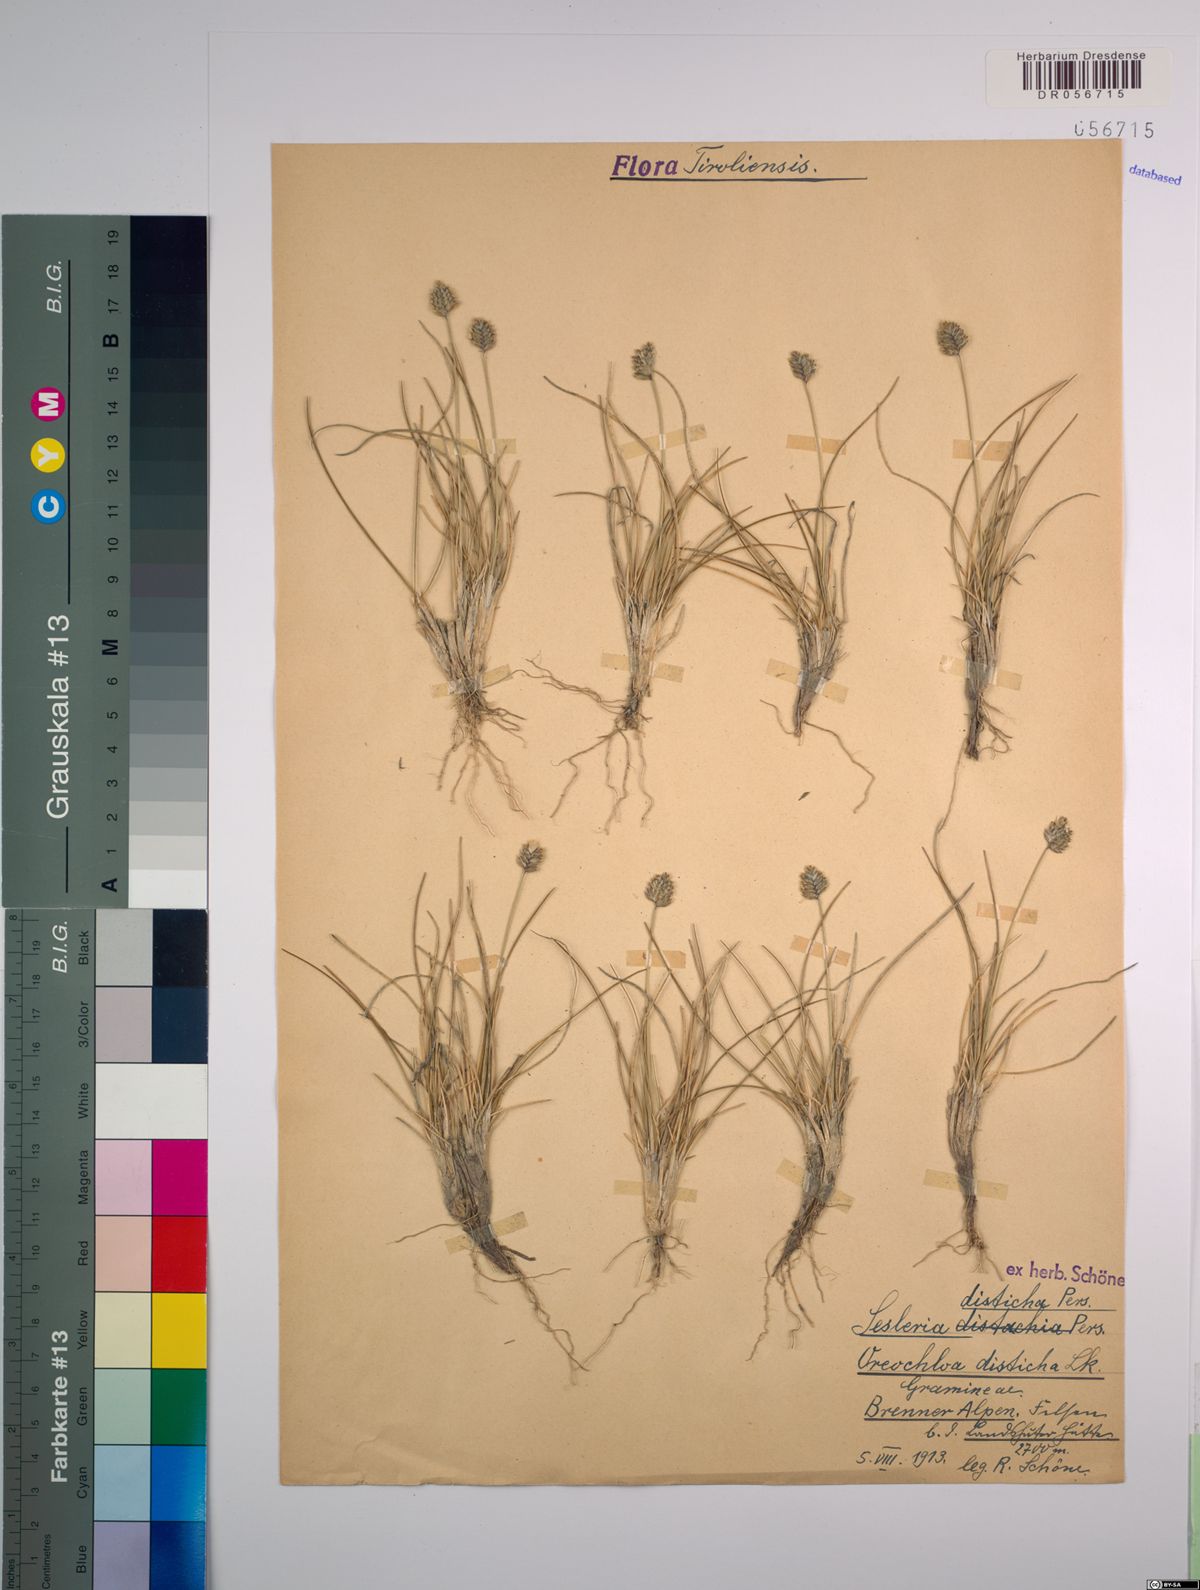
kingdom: Plantae
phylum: Tracheophyta
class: Liliopsida
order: Poales
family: Poaceae
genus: Oreochloa
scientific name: Oreochloa disticha
